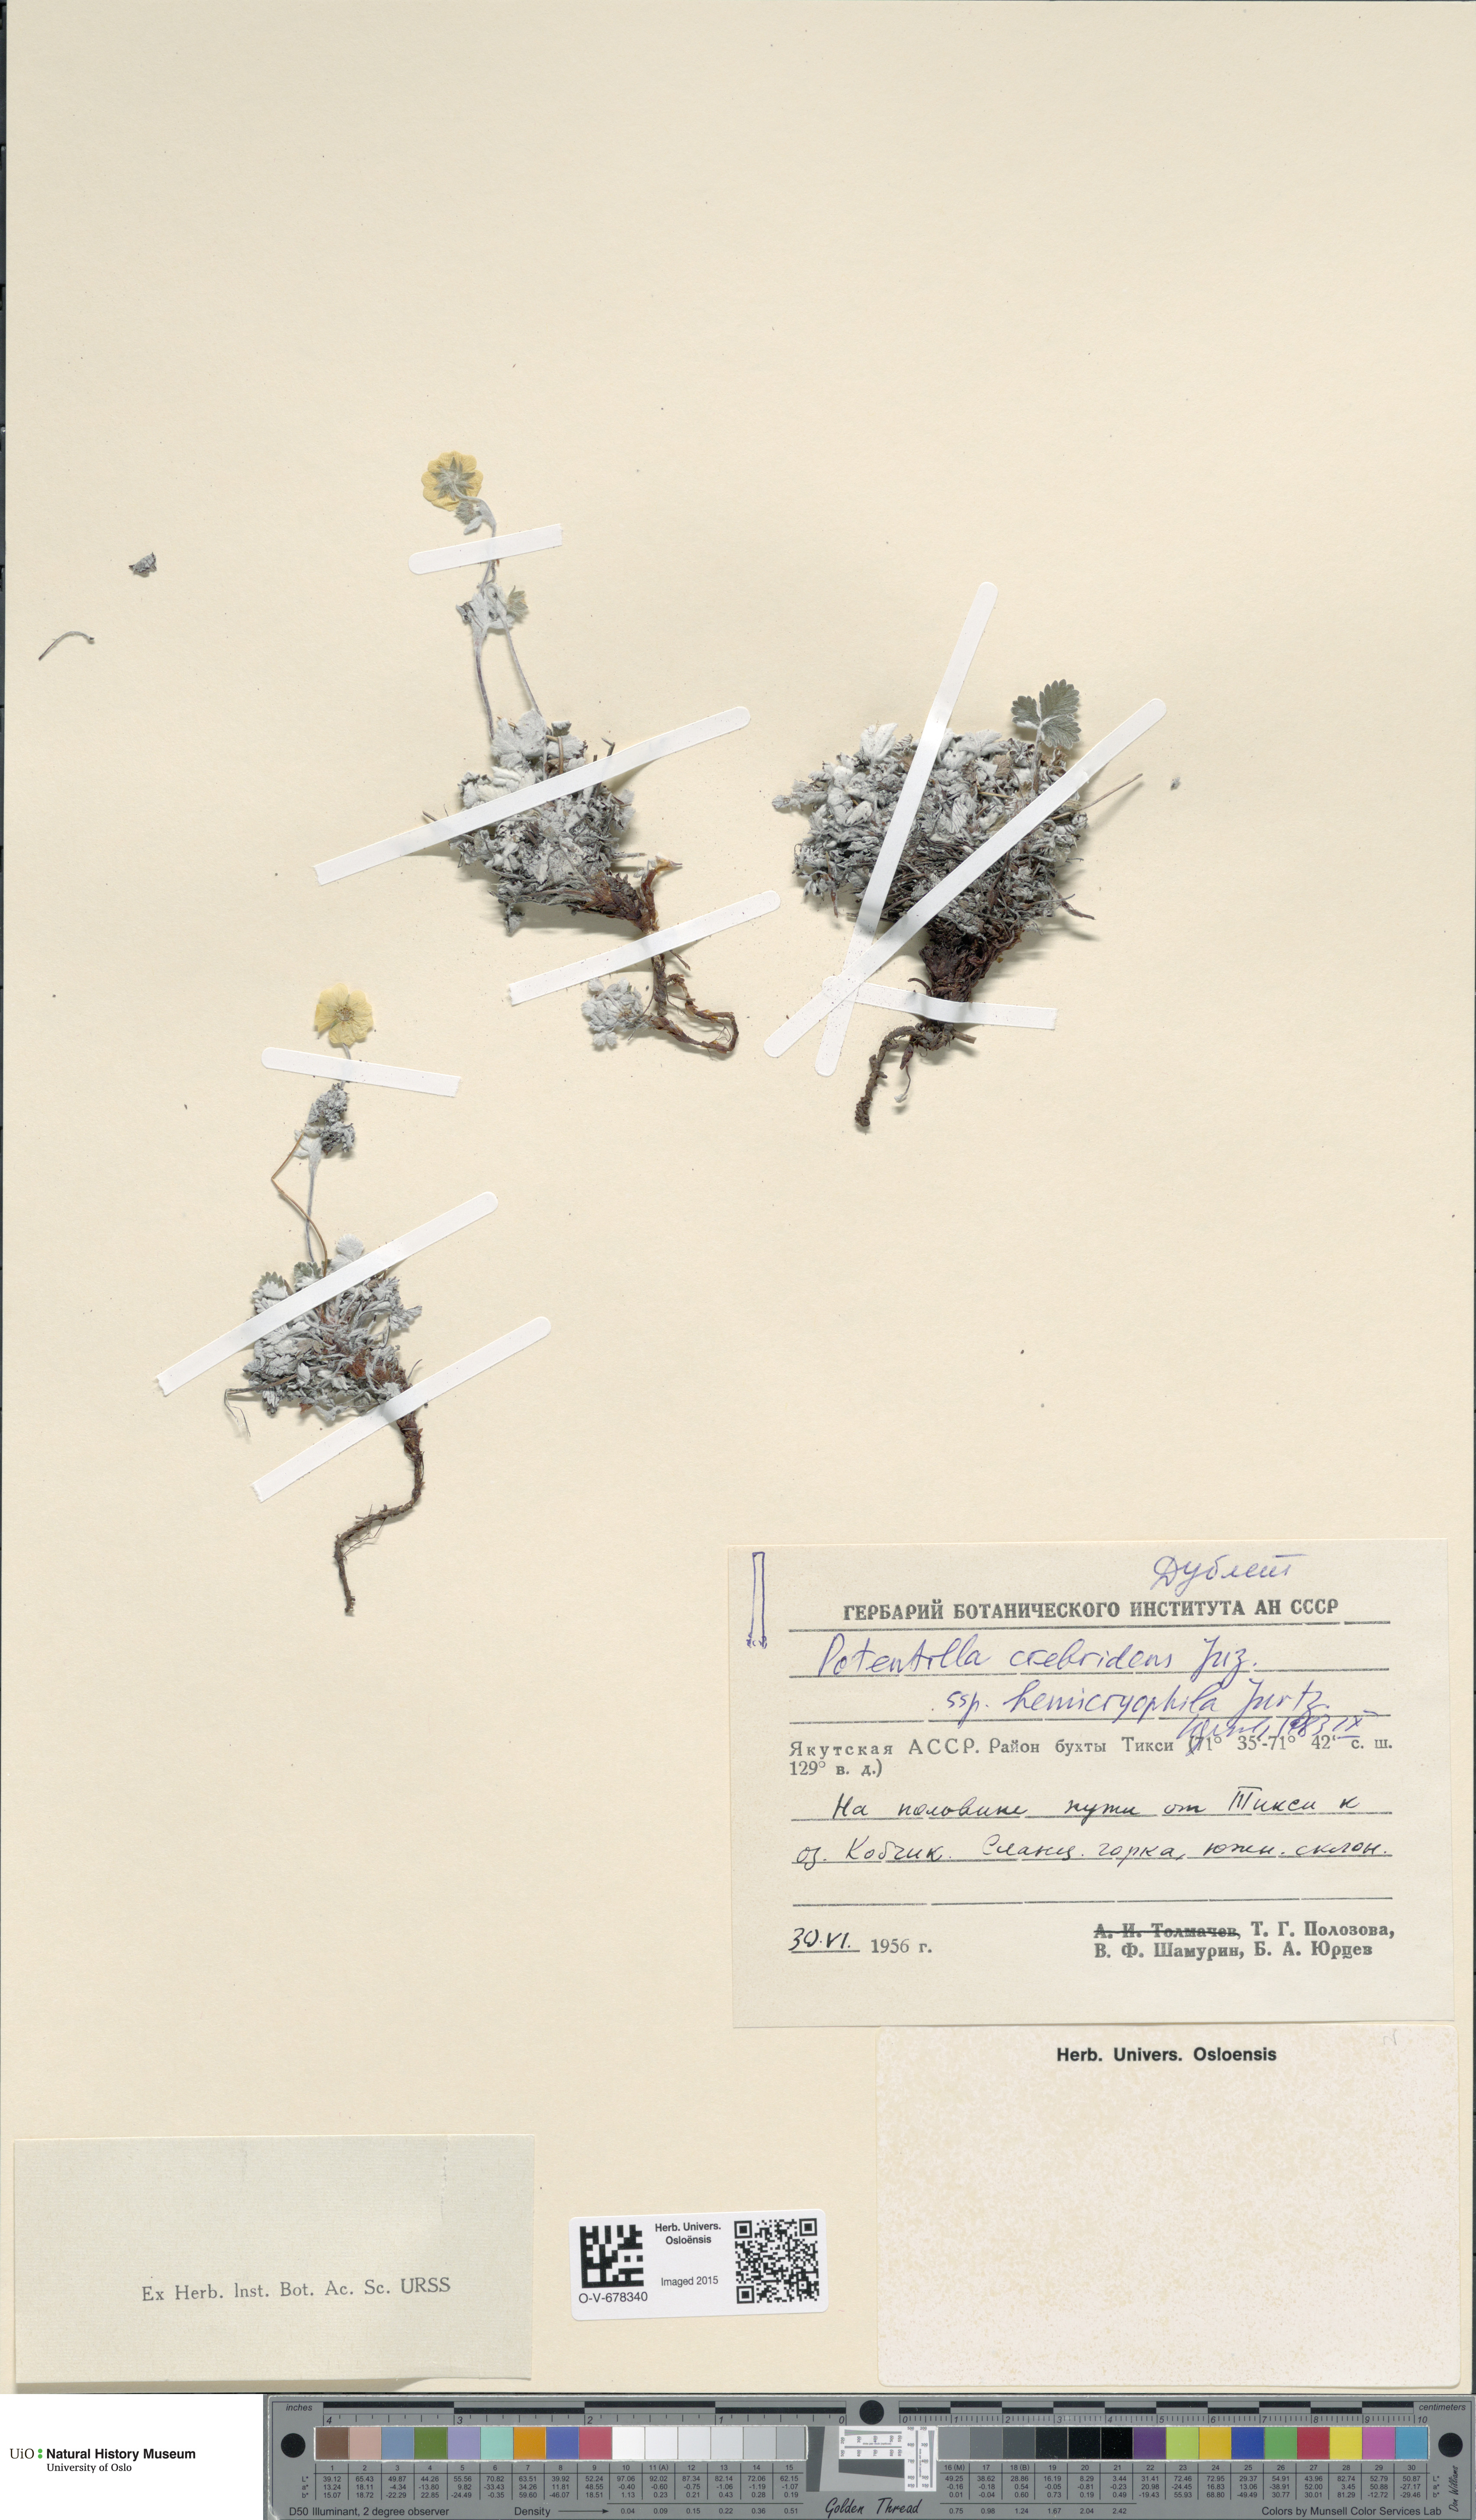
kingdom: Plantae
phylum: Tracheophyta
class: Magnoliopsida
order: Rosales
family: Rosaceae
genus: Potentilla
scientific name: Potentilla crebridens
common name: Congested cinquefoil
